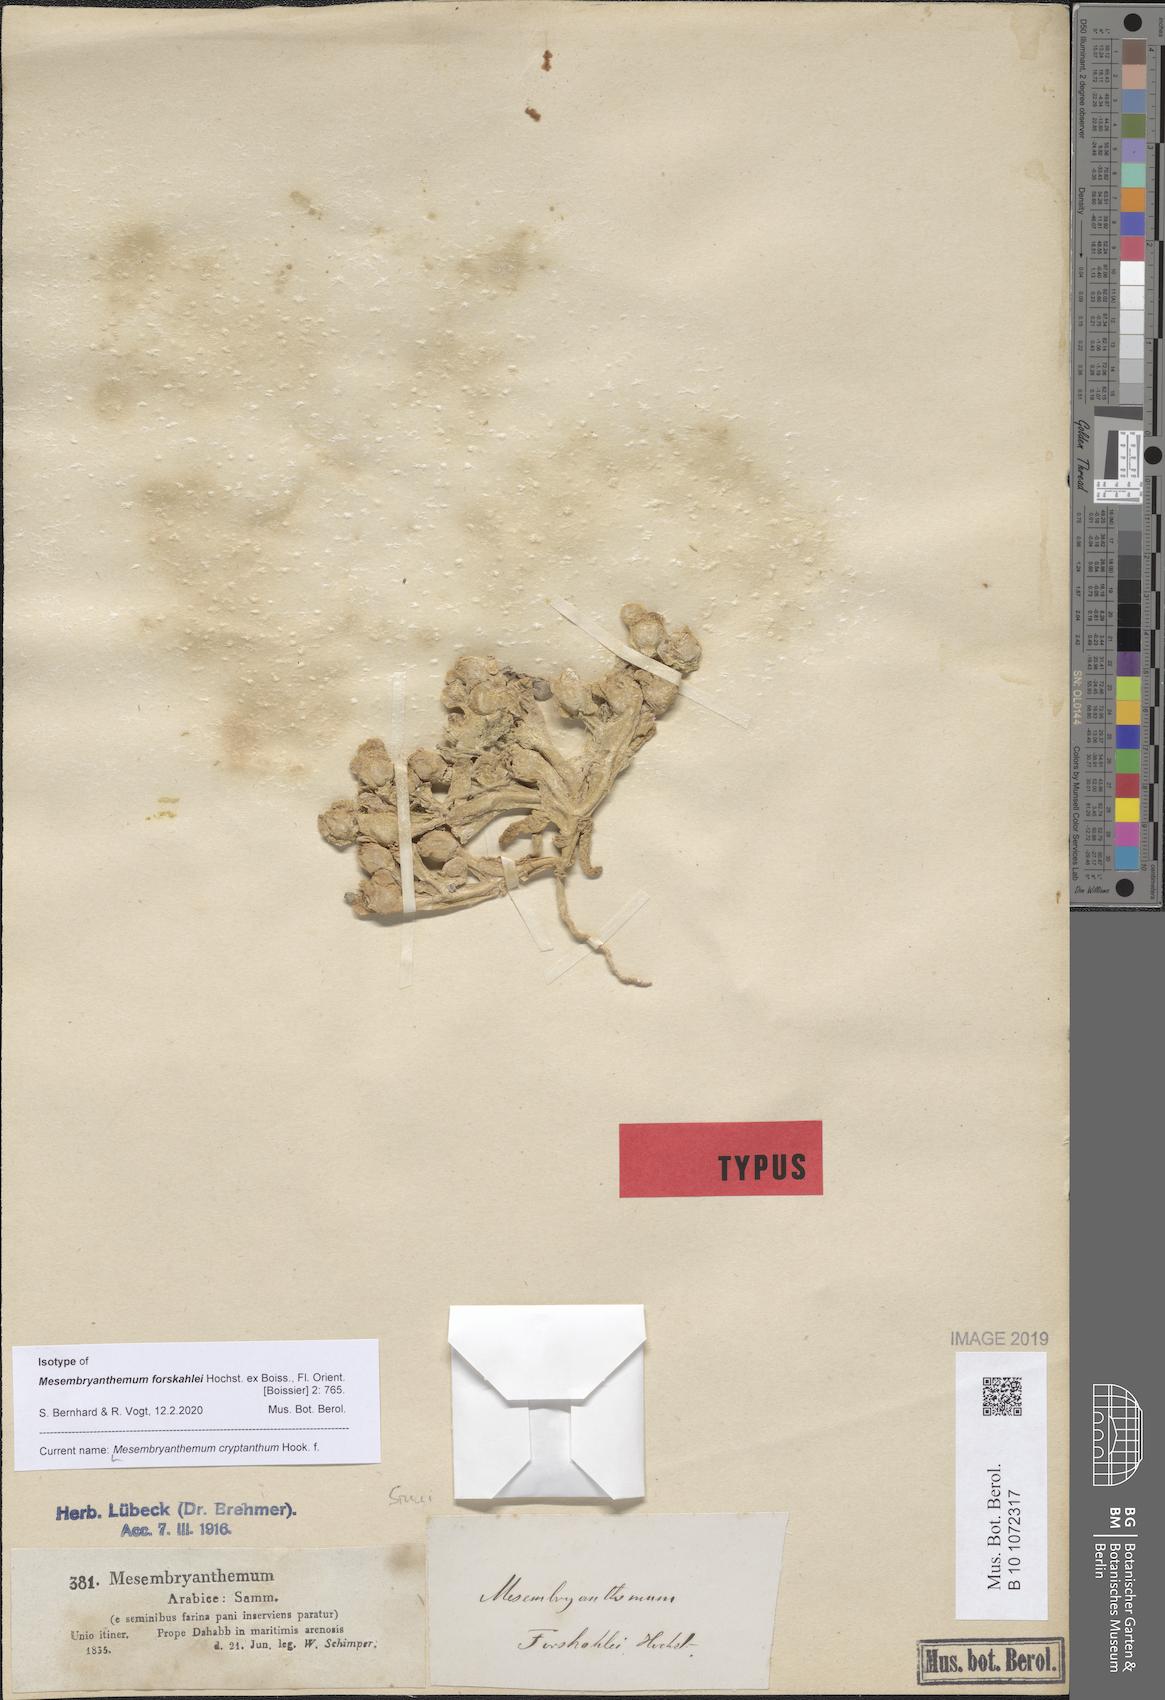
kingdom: Plantae
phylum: Tracheophyta
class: Magnoliopsida
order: Caryophyllales
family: Aizoaceae
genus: Mesembryanthemum
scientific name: Mesembryanthemum cryptanthum
